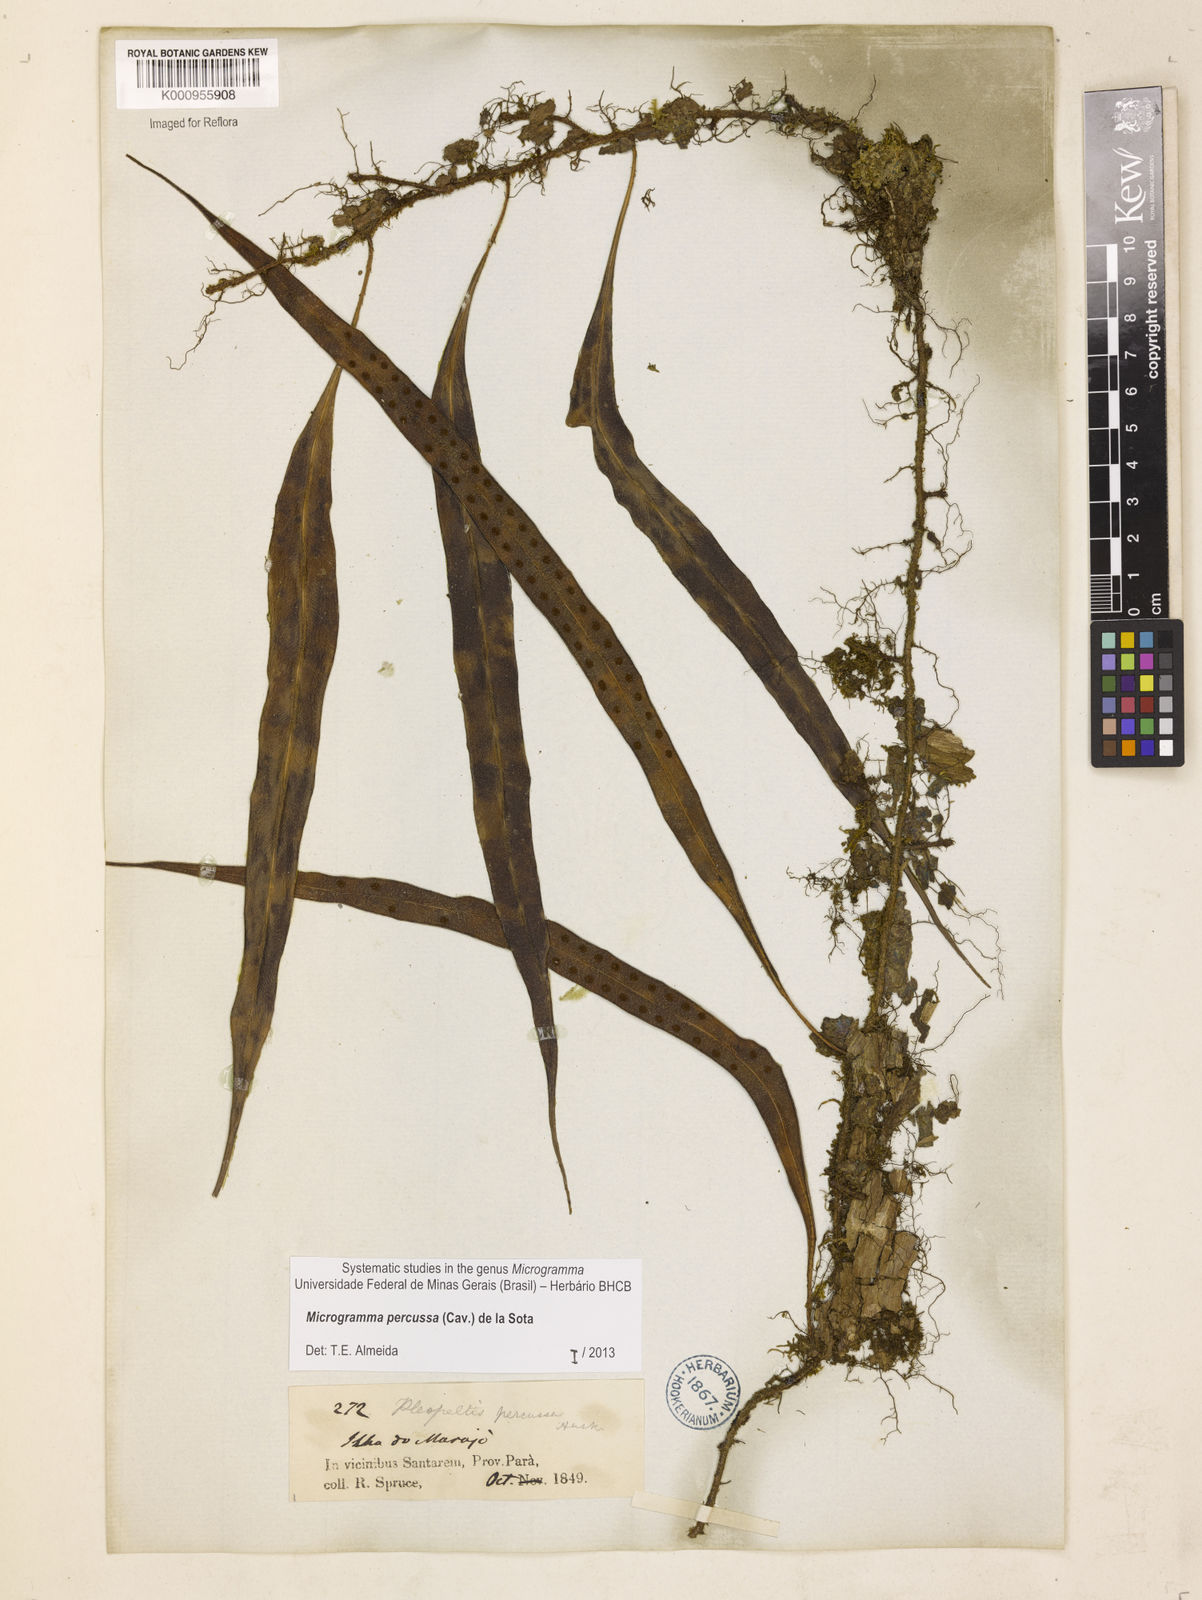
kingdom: Plantae
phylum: Tracheophyta
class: Polypodiopsida
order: Polypodiales
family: Polypodiaceae
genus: Microgramma
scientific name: Microgramma percussa
